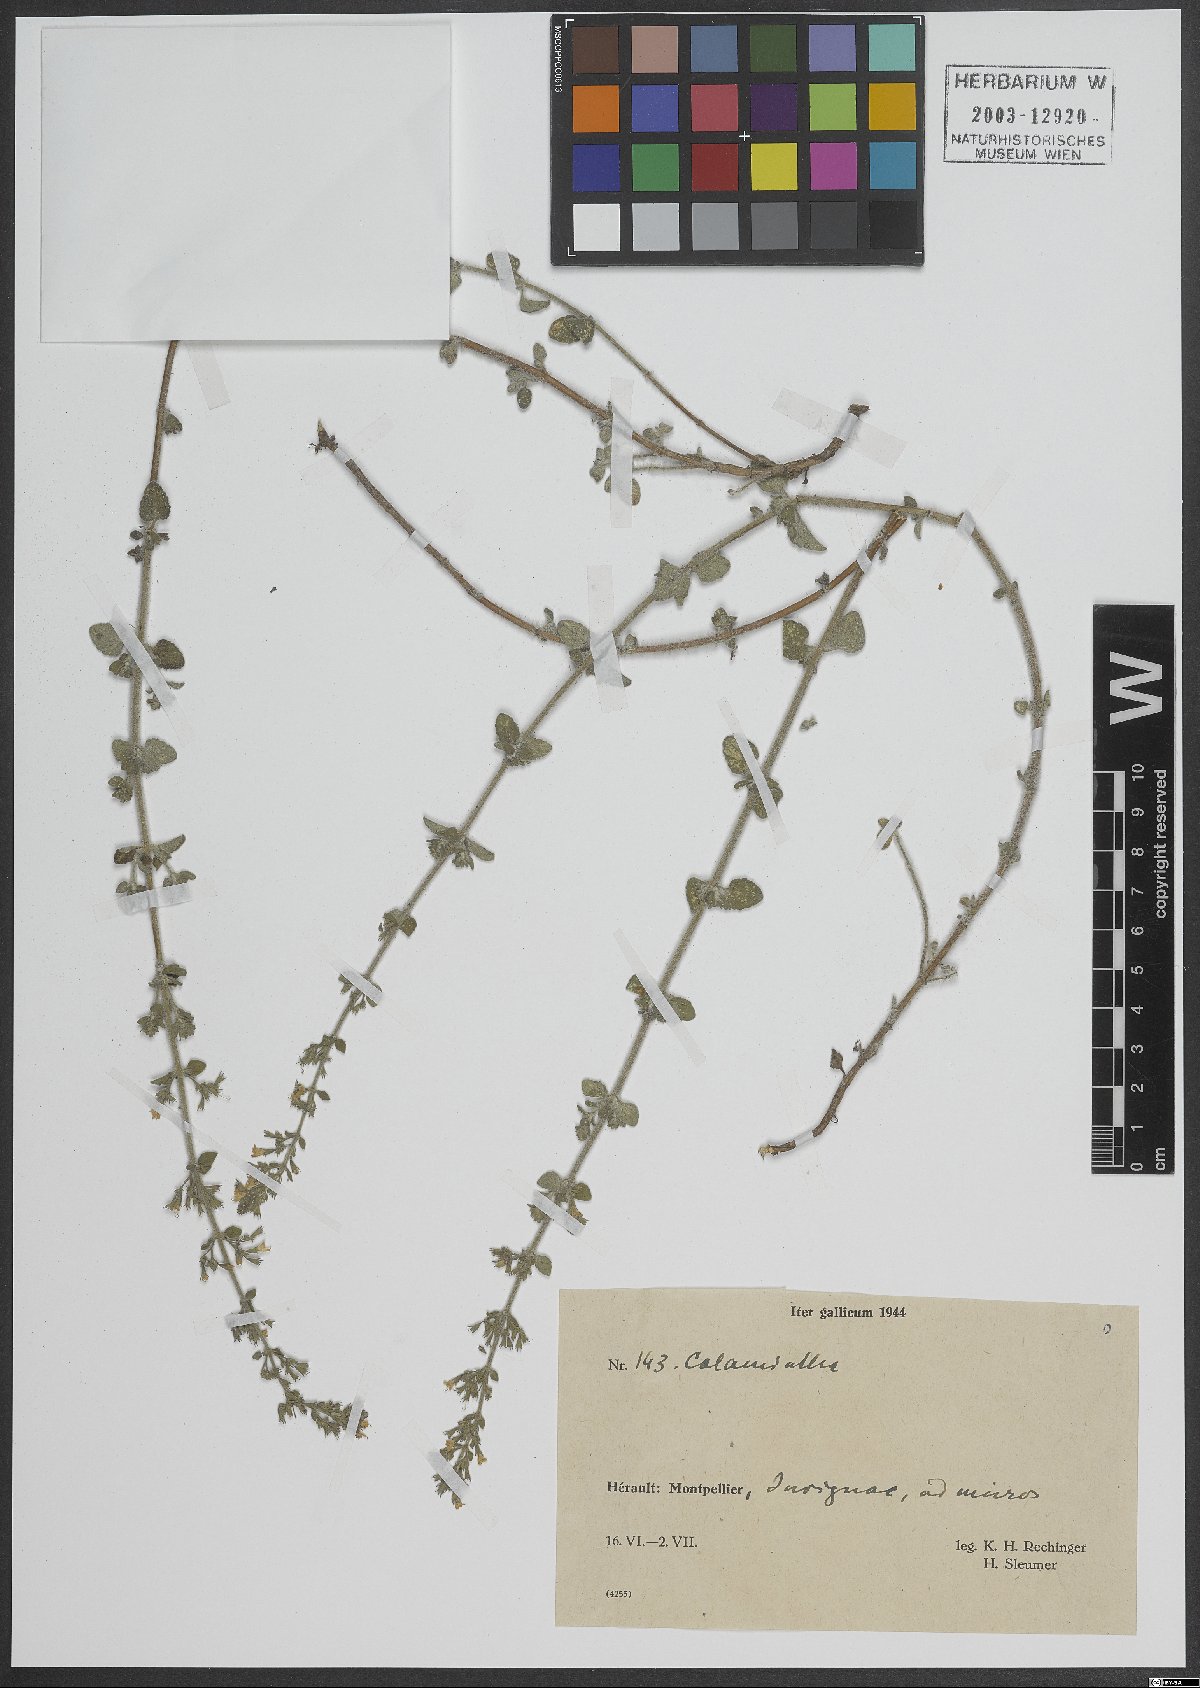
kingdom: Plantae
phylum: Tracheophyta
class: Magnoliopsida
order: Lamiales
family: Lamiaceae
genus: Calamintha
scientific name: Calamintha
